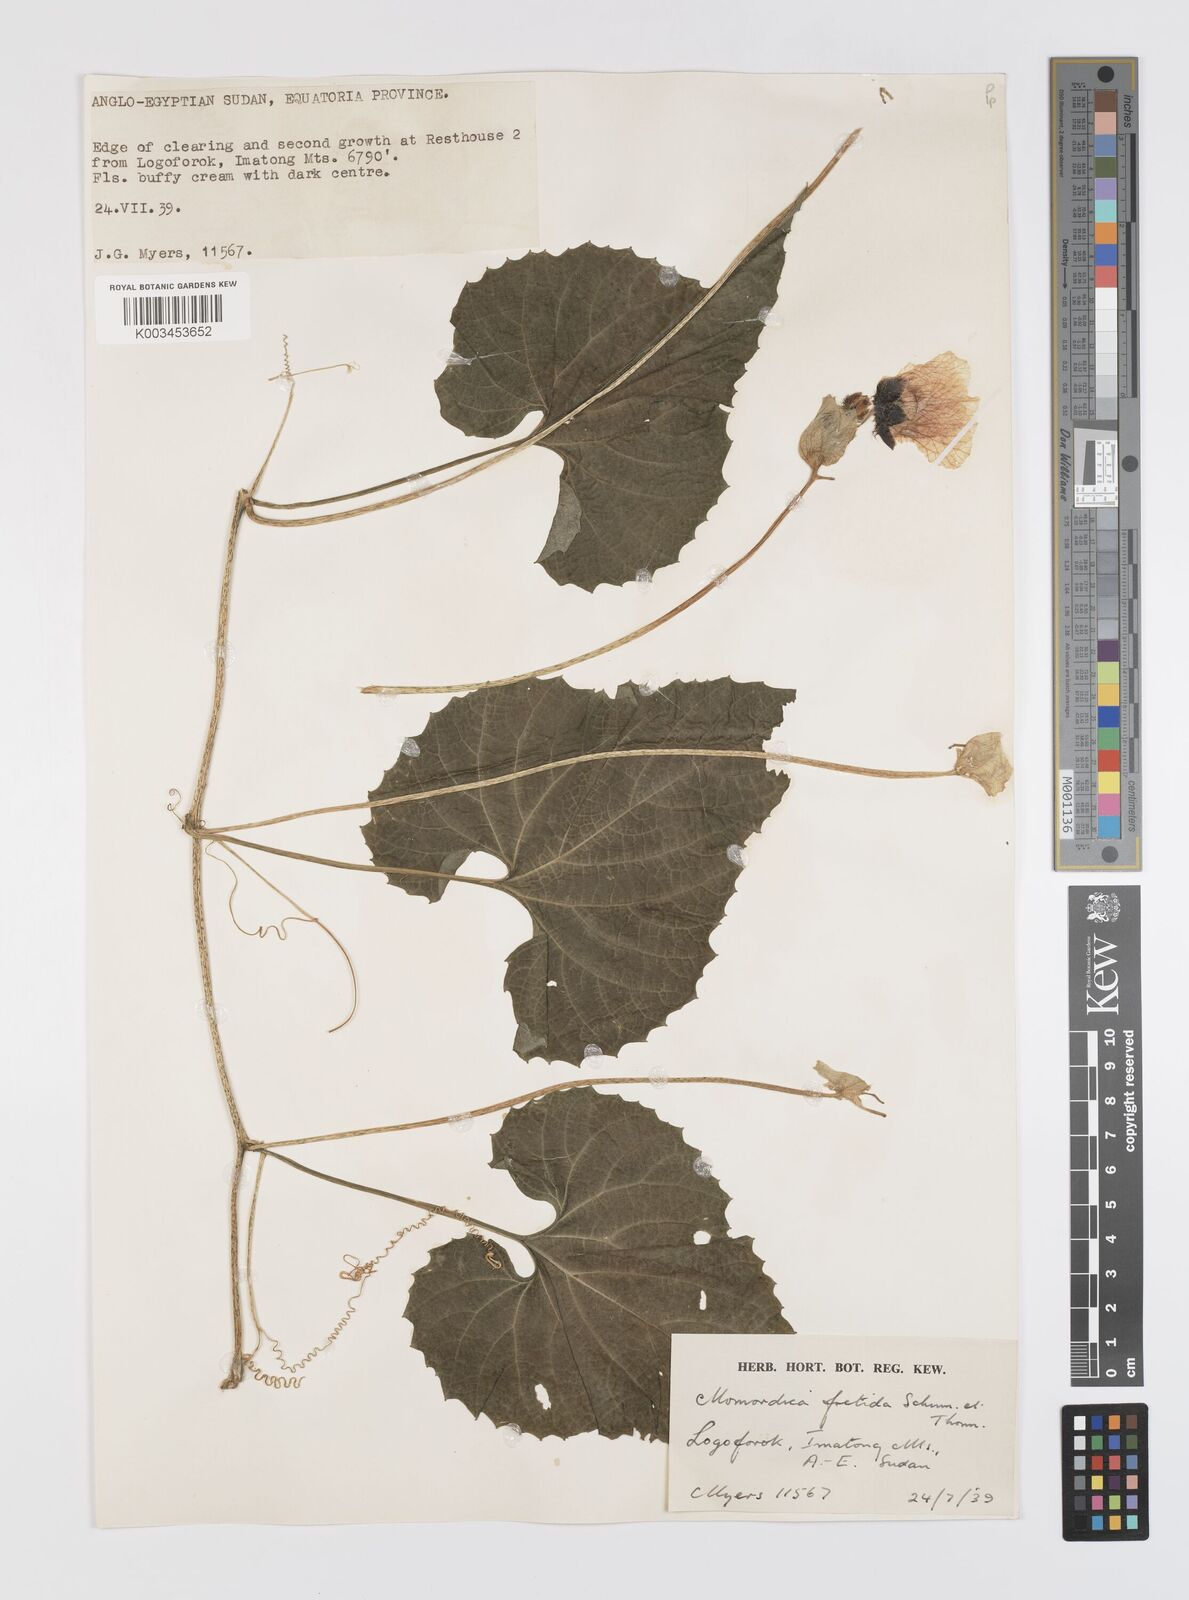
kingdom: Plantae
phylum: Tracheophyta
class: Magnoliopsida
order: Cucurbitales
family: Cucurbitaceae
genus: Momordica
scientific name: Momordica foetida
